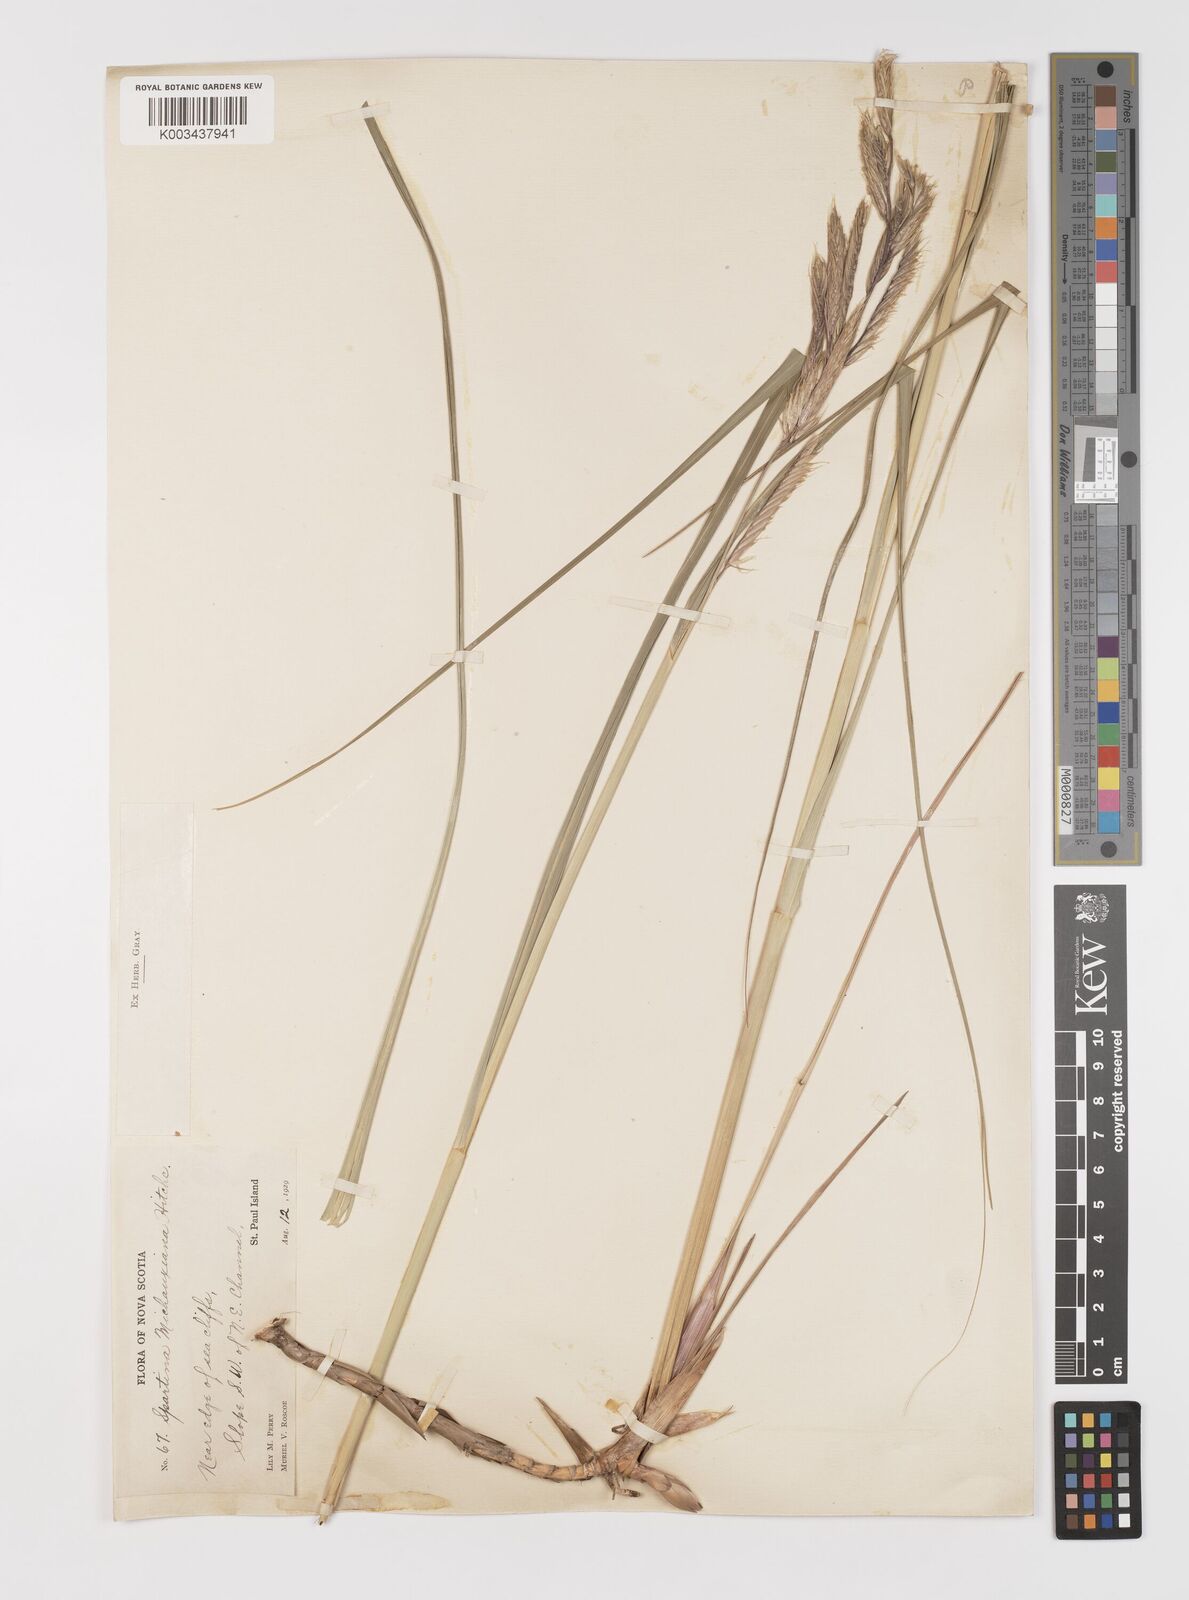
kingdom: Plantae
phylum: Tracheophyta
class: Liliopsida
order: Poales
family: Poaceae
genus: Sporobolus
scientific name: Sporobolus michauxianus
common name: Freshwater cordgrass
